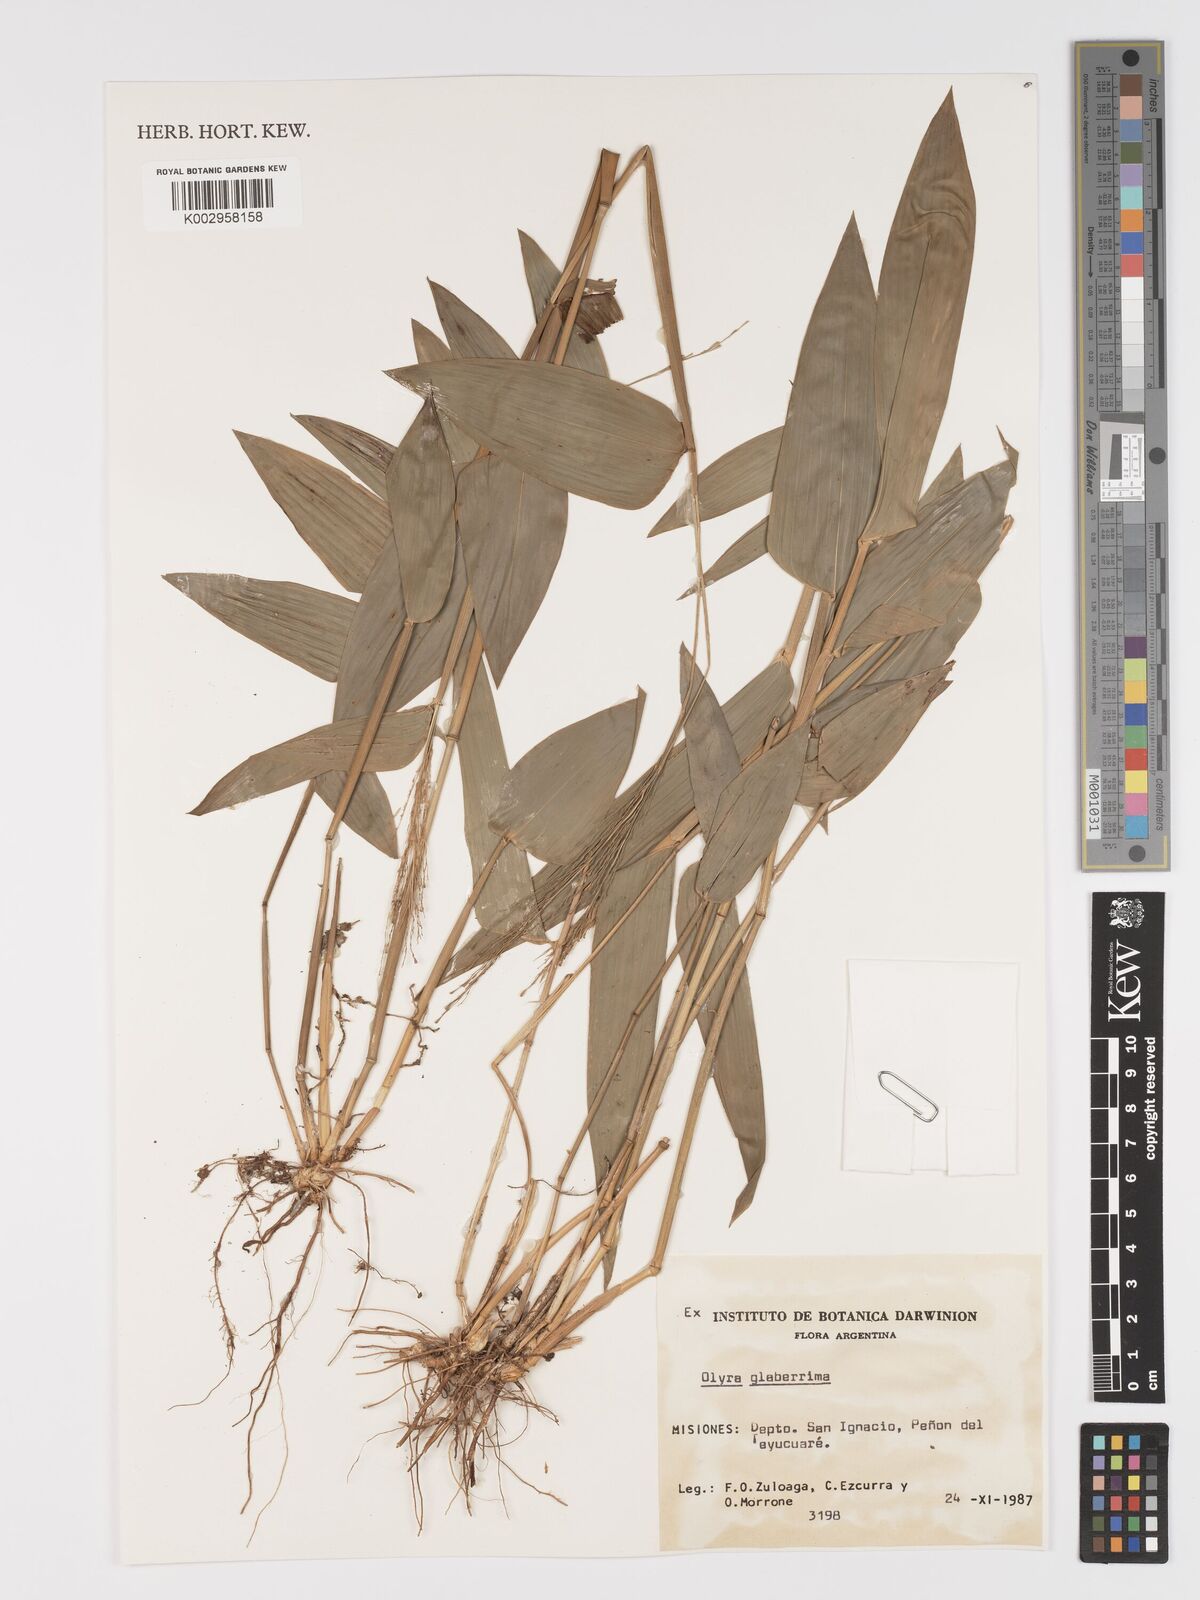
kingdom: Plantae
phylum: Tracheophyta
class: Liliopsida
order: Poales
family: Poaceae
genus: Olyra
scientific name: Olyra glaberrima
